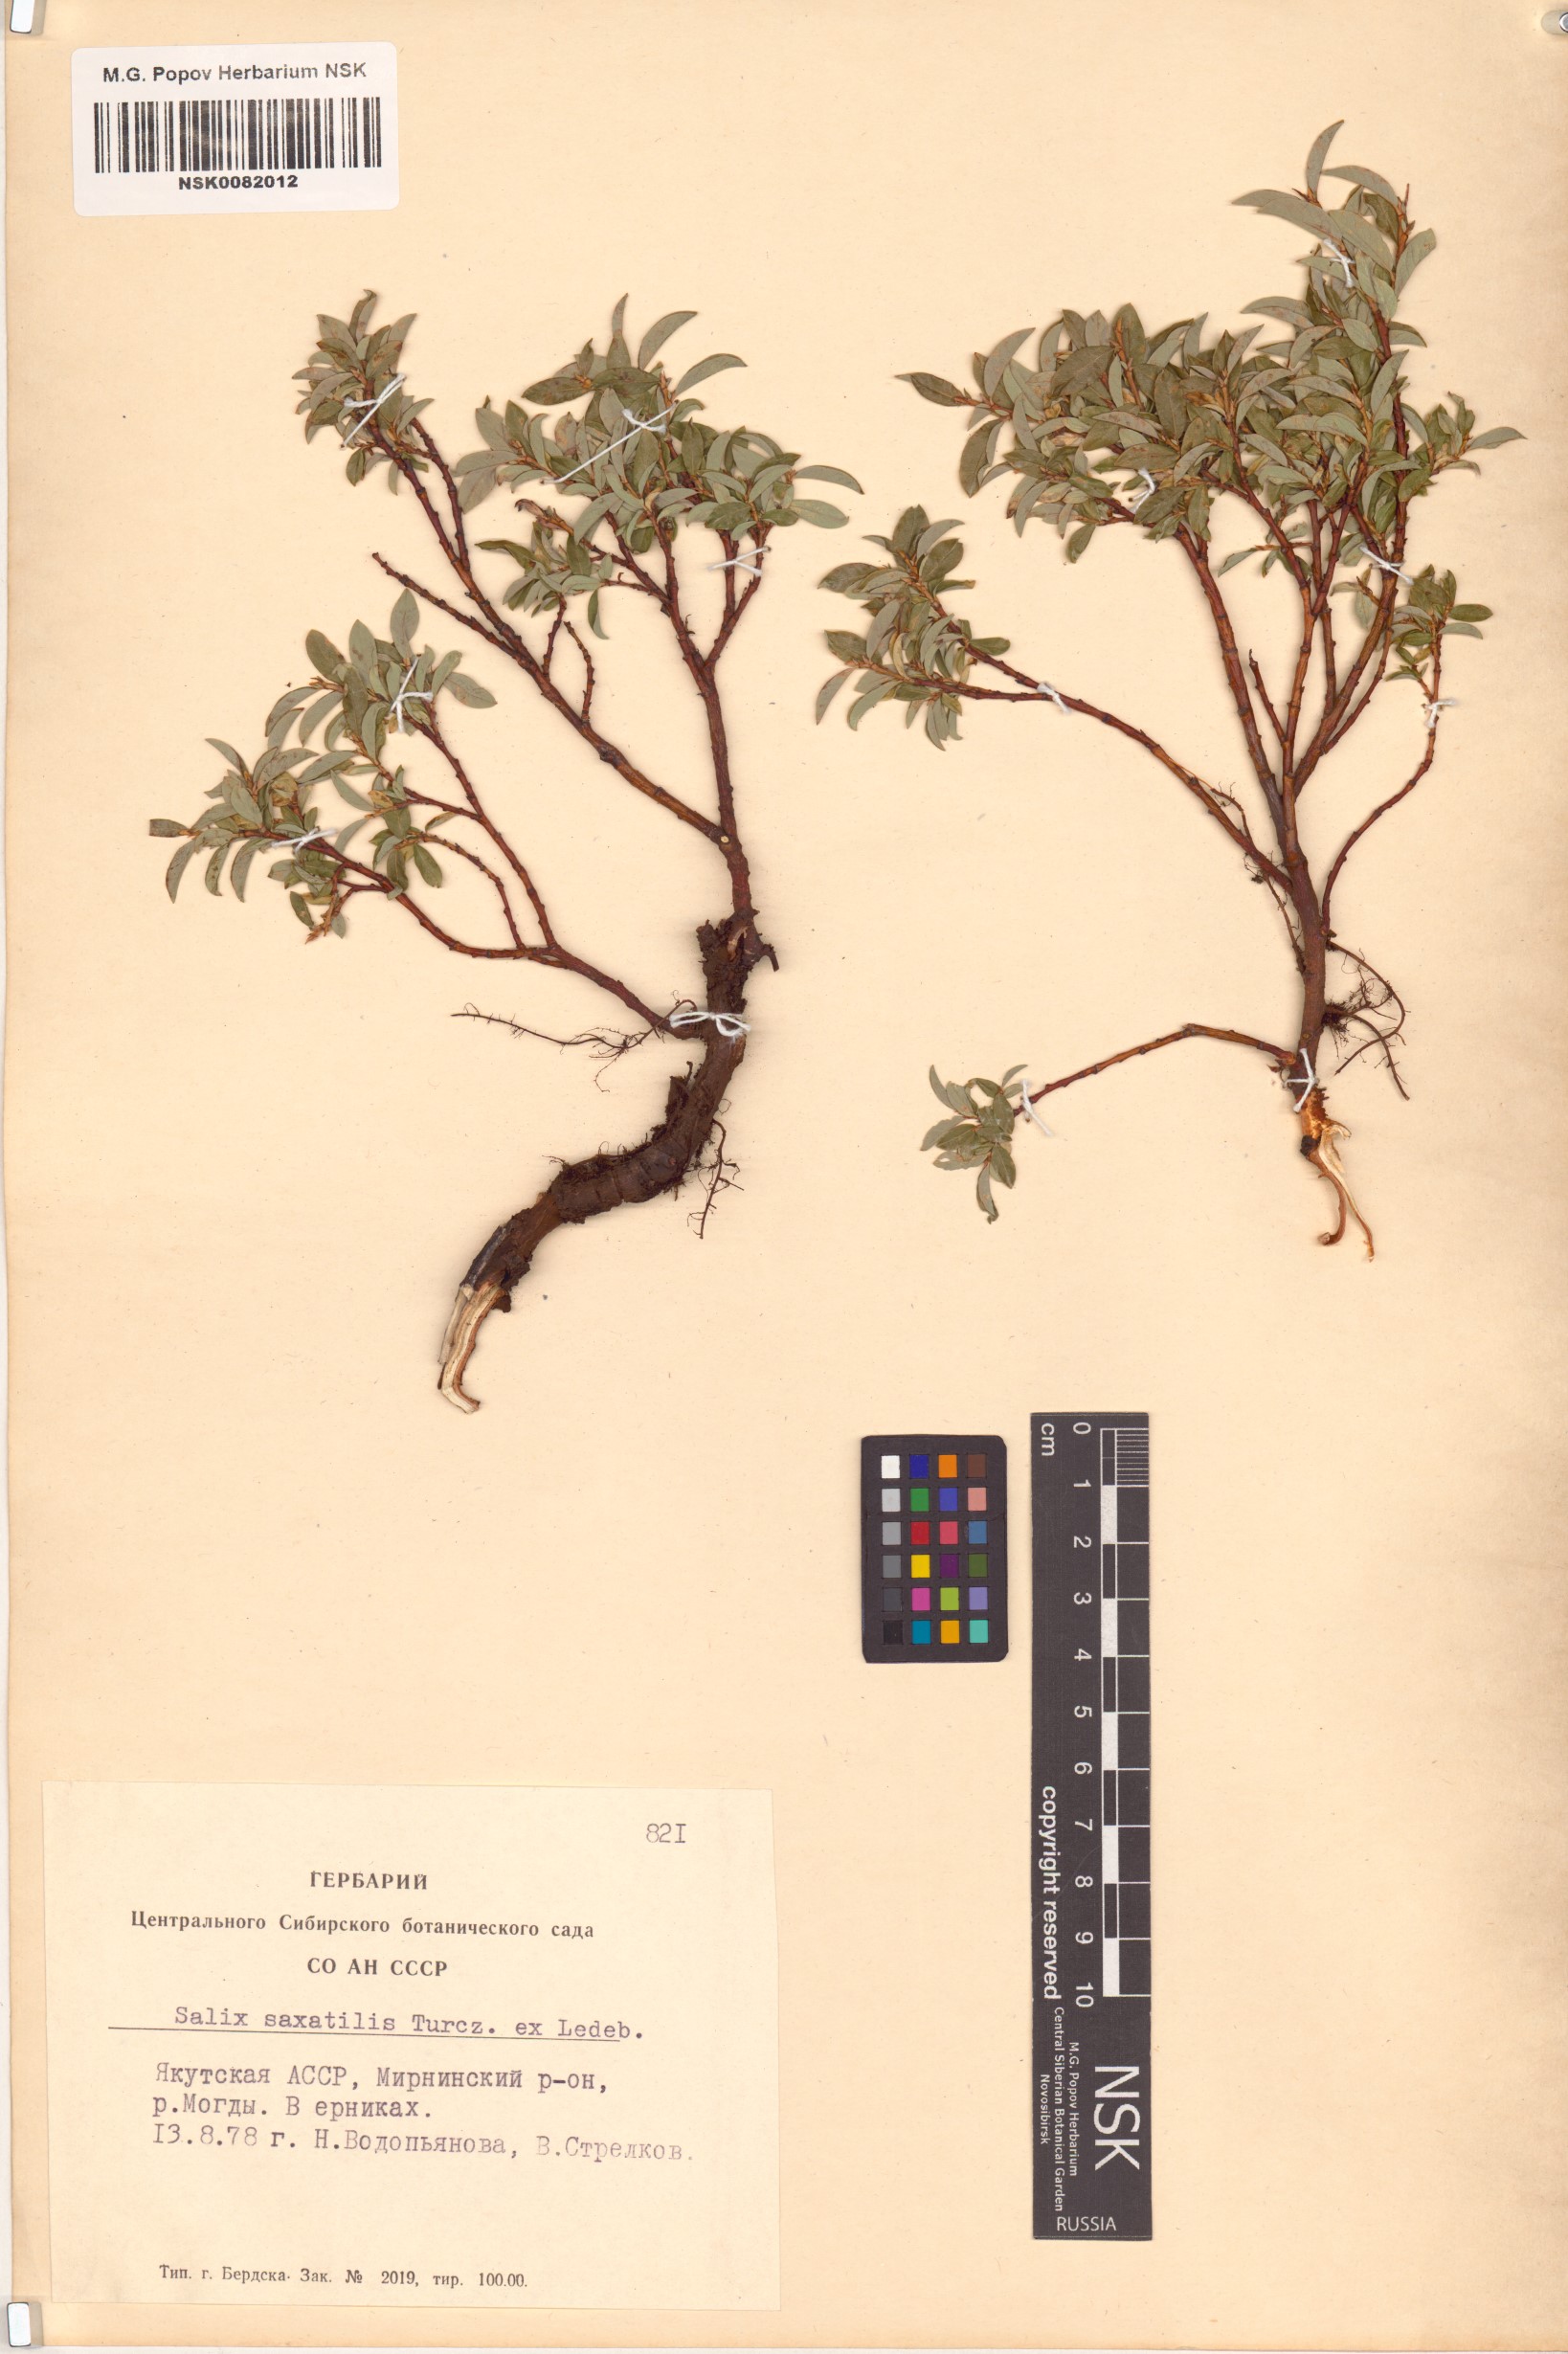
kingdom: Plantae
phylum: Tracheophyta
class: Magnoliopsida
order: Malpighiales
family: Salicaceae
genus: Salix
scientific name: Salix saxatilis
